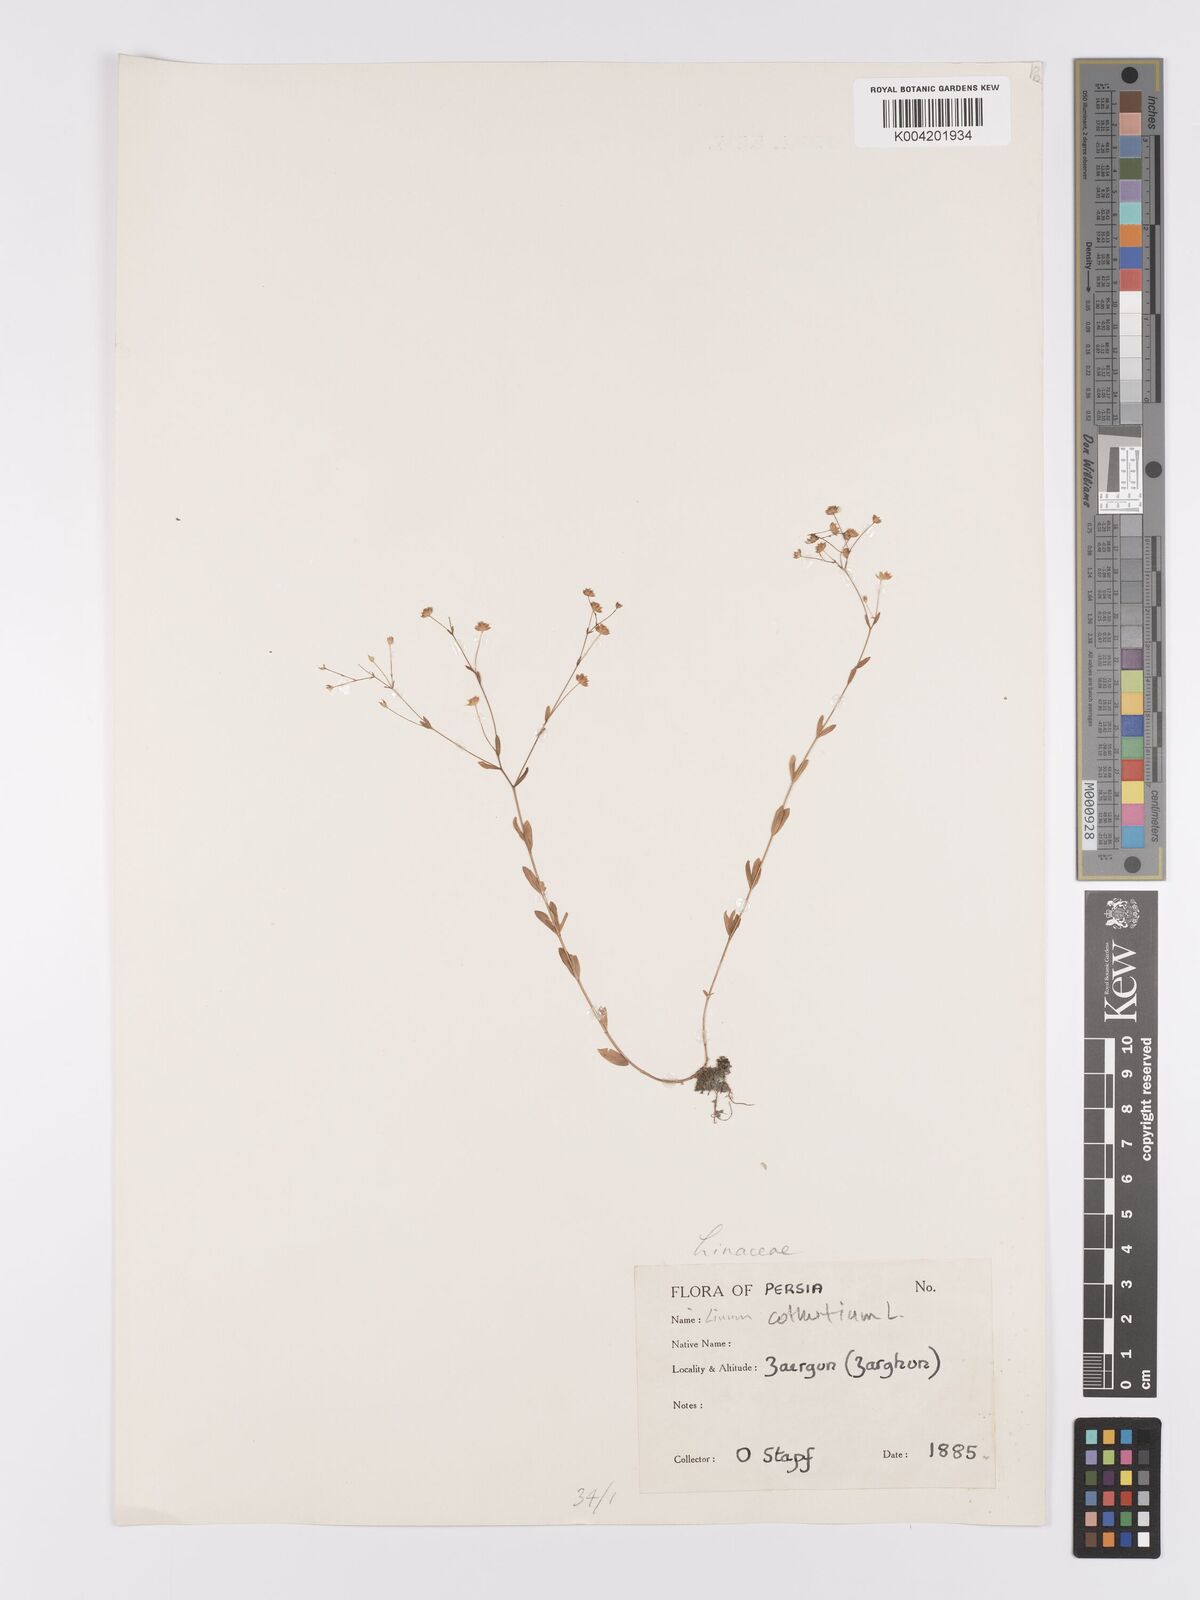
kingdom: Plantae
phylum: Tracheophyta
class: Magnoliopsida
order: Malpighiales
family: Linaceae
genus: Linum
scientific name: Linum
